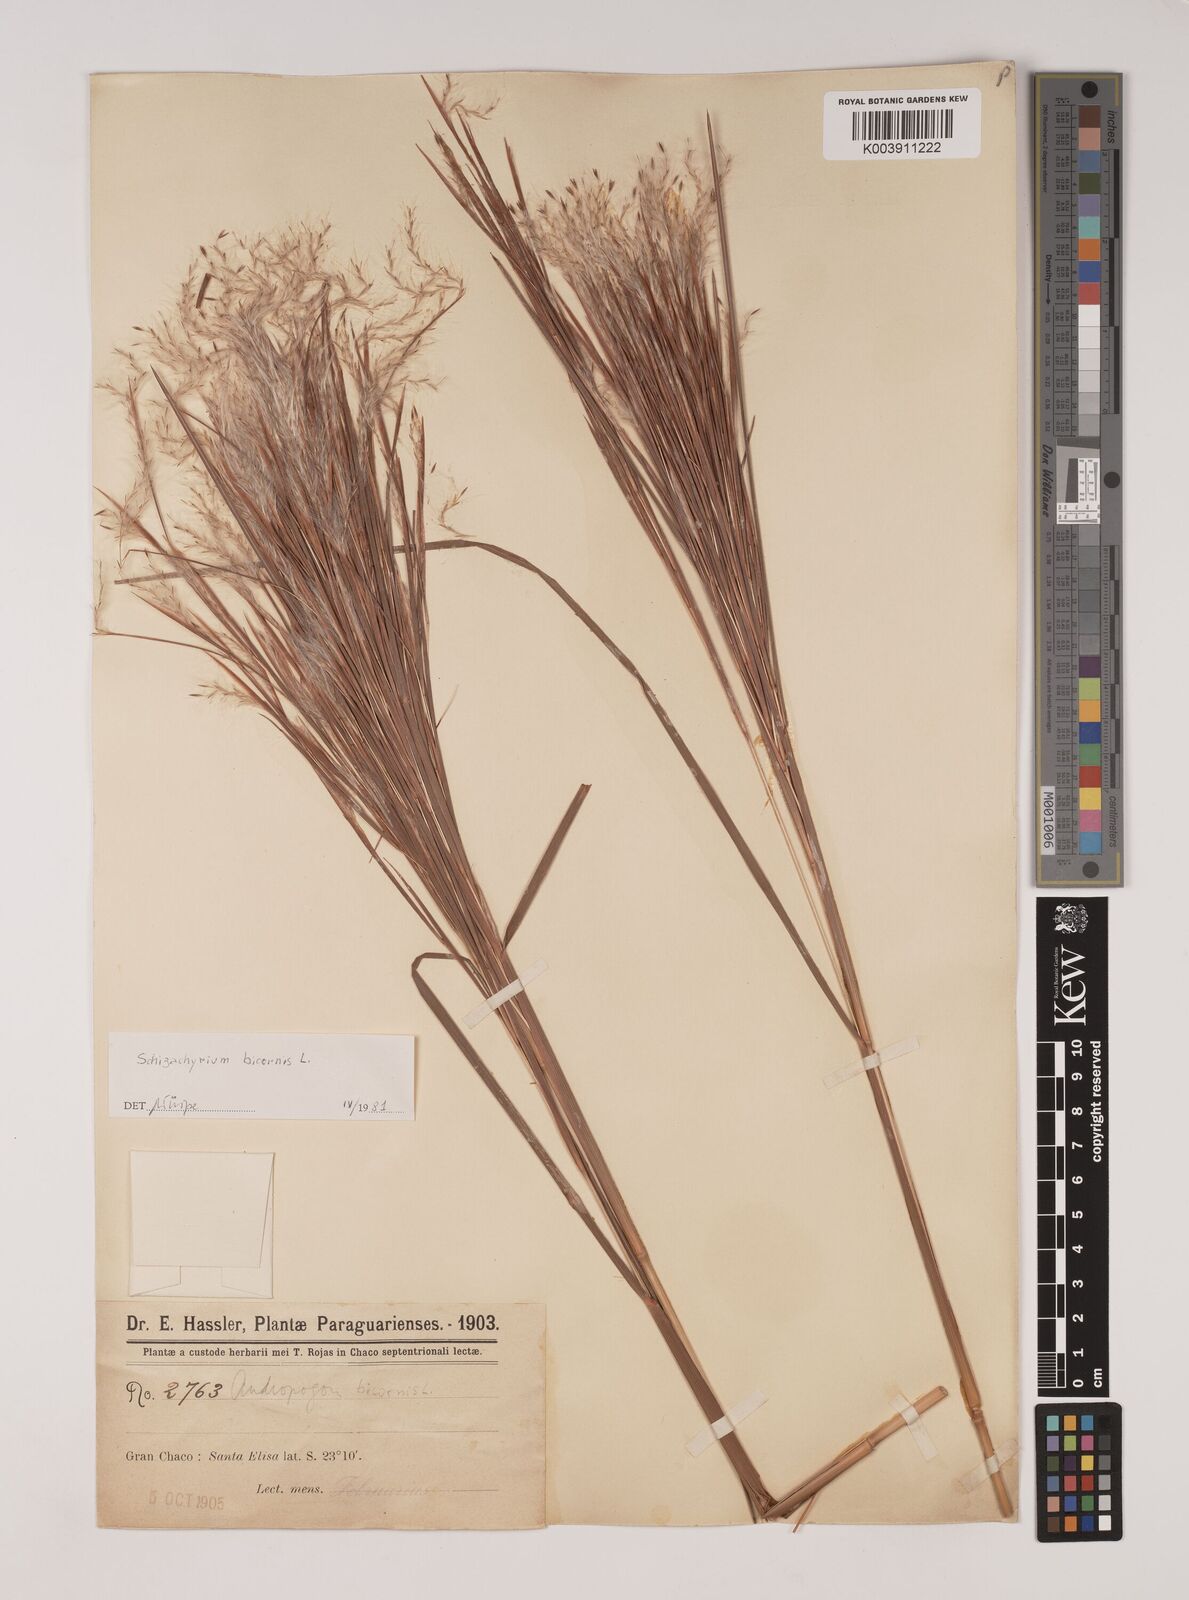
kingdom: Plantae
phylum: Tracheophyta
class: Liliopsida
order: Poales
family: Poaceae
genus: Andropogon
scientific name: Andropogon bicornis
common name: West indian foxtail grass
